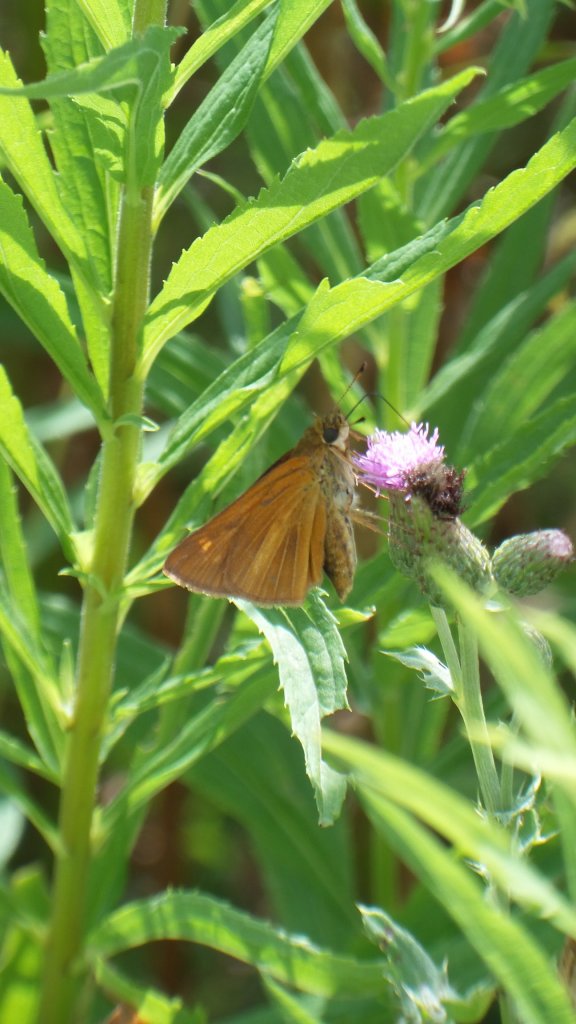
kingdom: Animalia
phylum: Arthropoda
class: Insecta
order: Lepidoptera
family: Hesperiidae
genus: Euphyes
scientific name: Euphyes dion
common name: Dion Skipper
